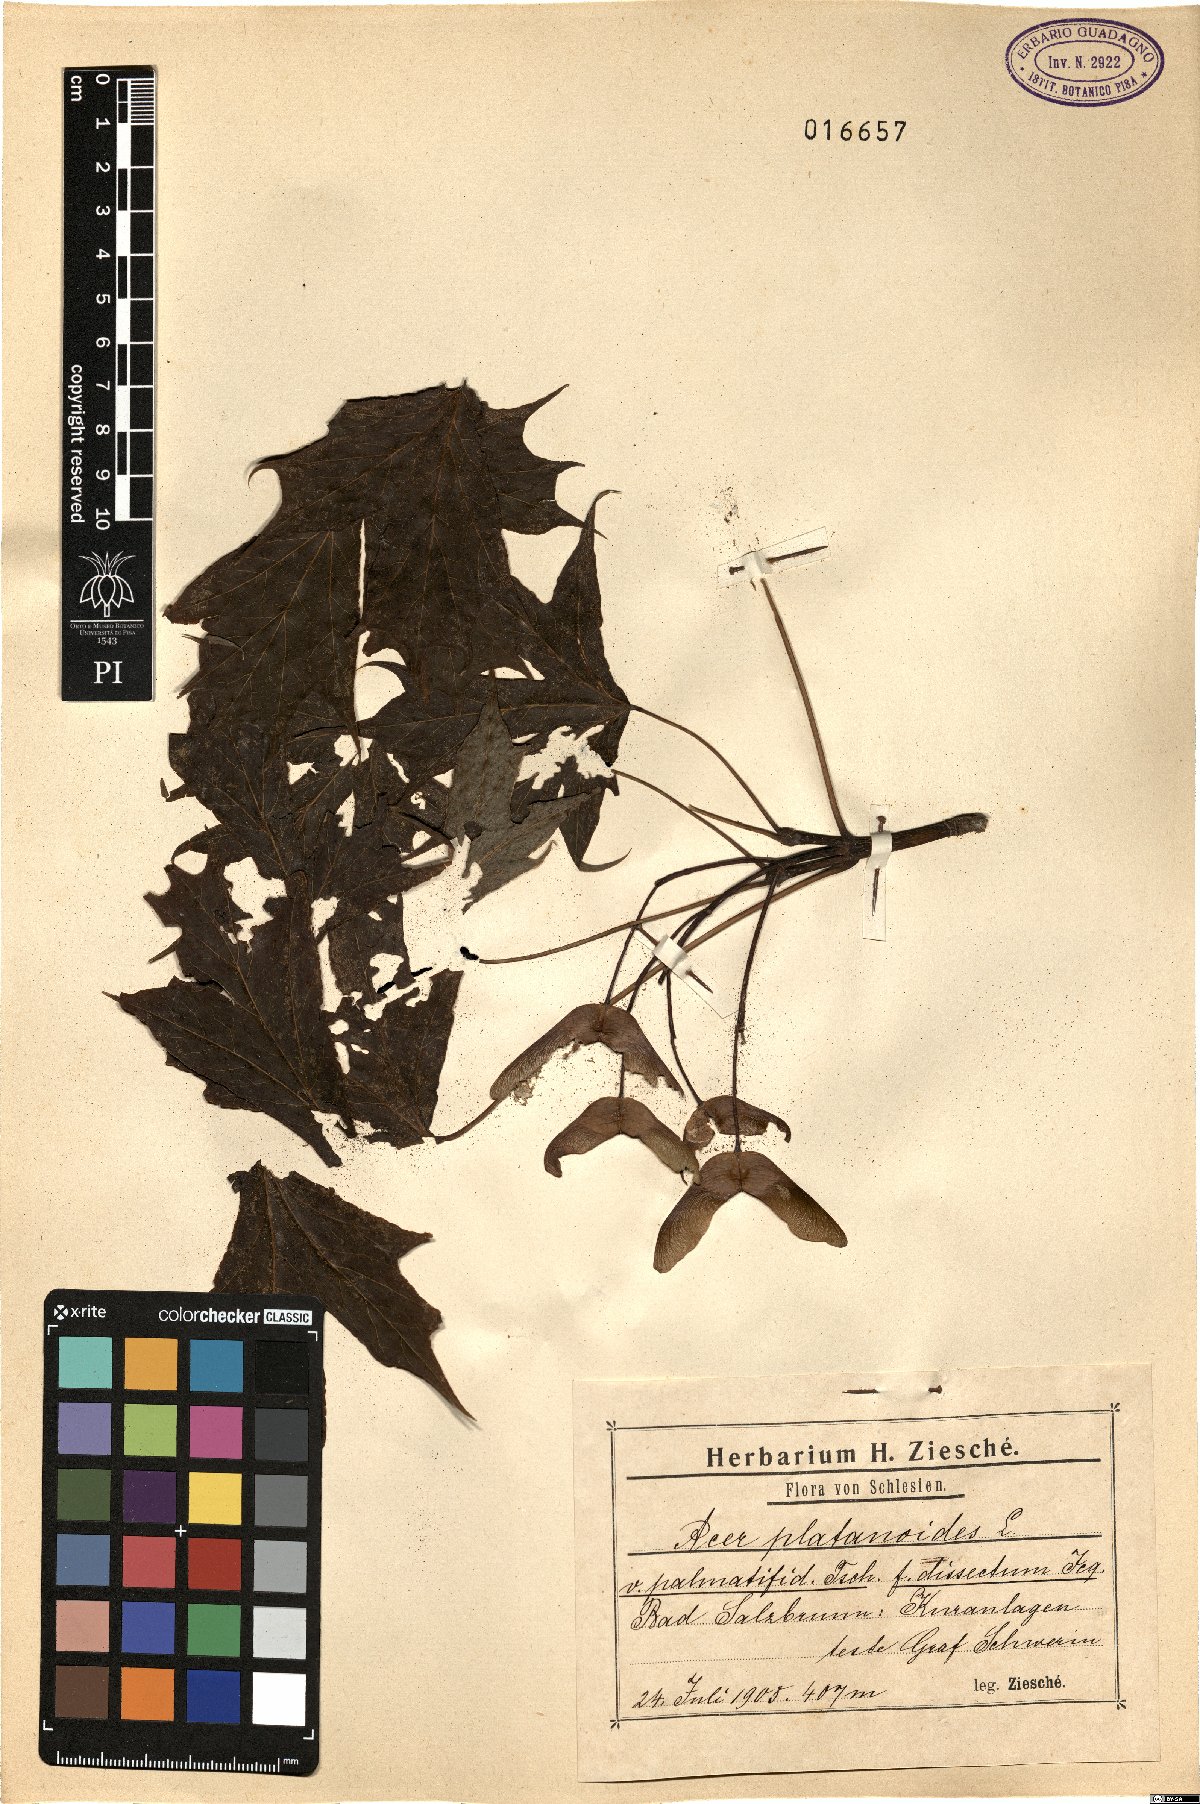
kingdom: Plantae
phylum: Tracheophyta
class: Magnoliopsida
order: Sapindales
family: Sapindaceae
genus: Acer
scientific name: Acer platanoides
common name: Norway maple
